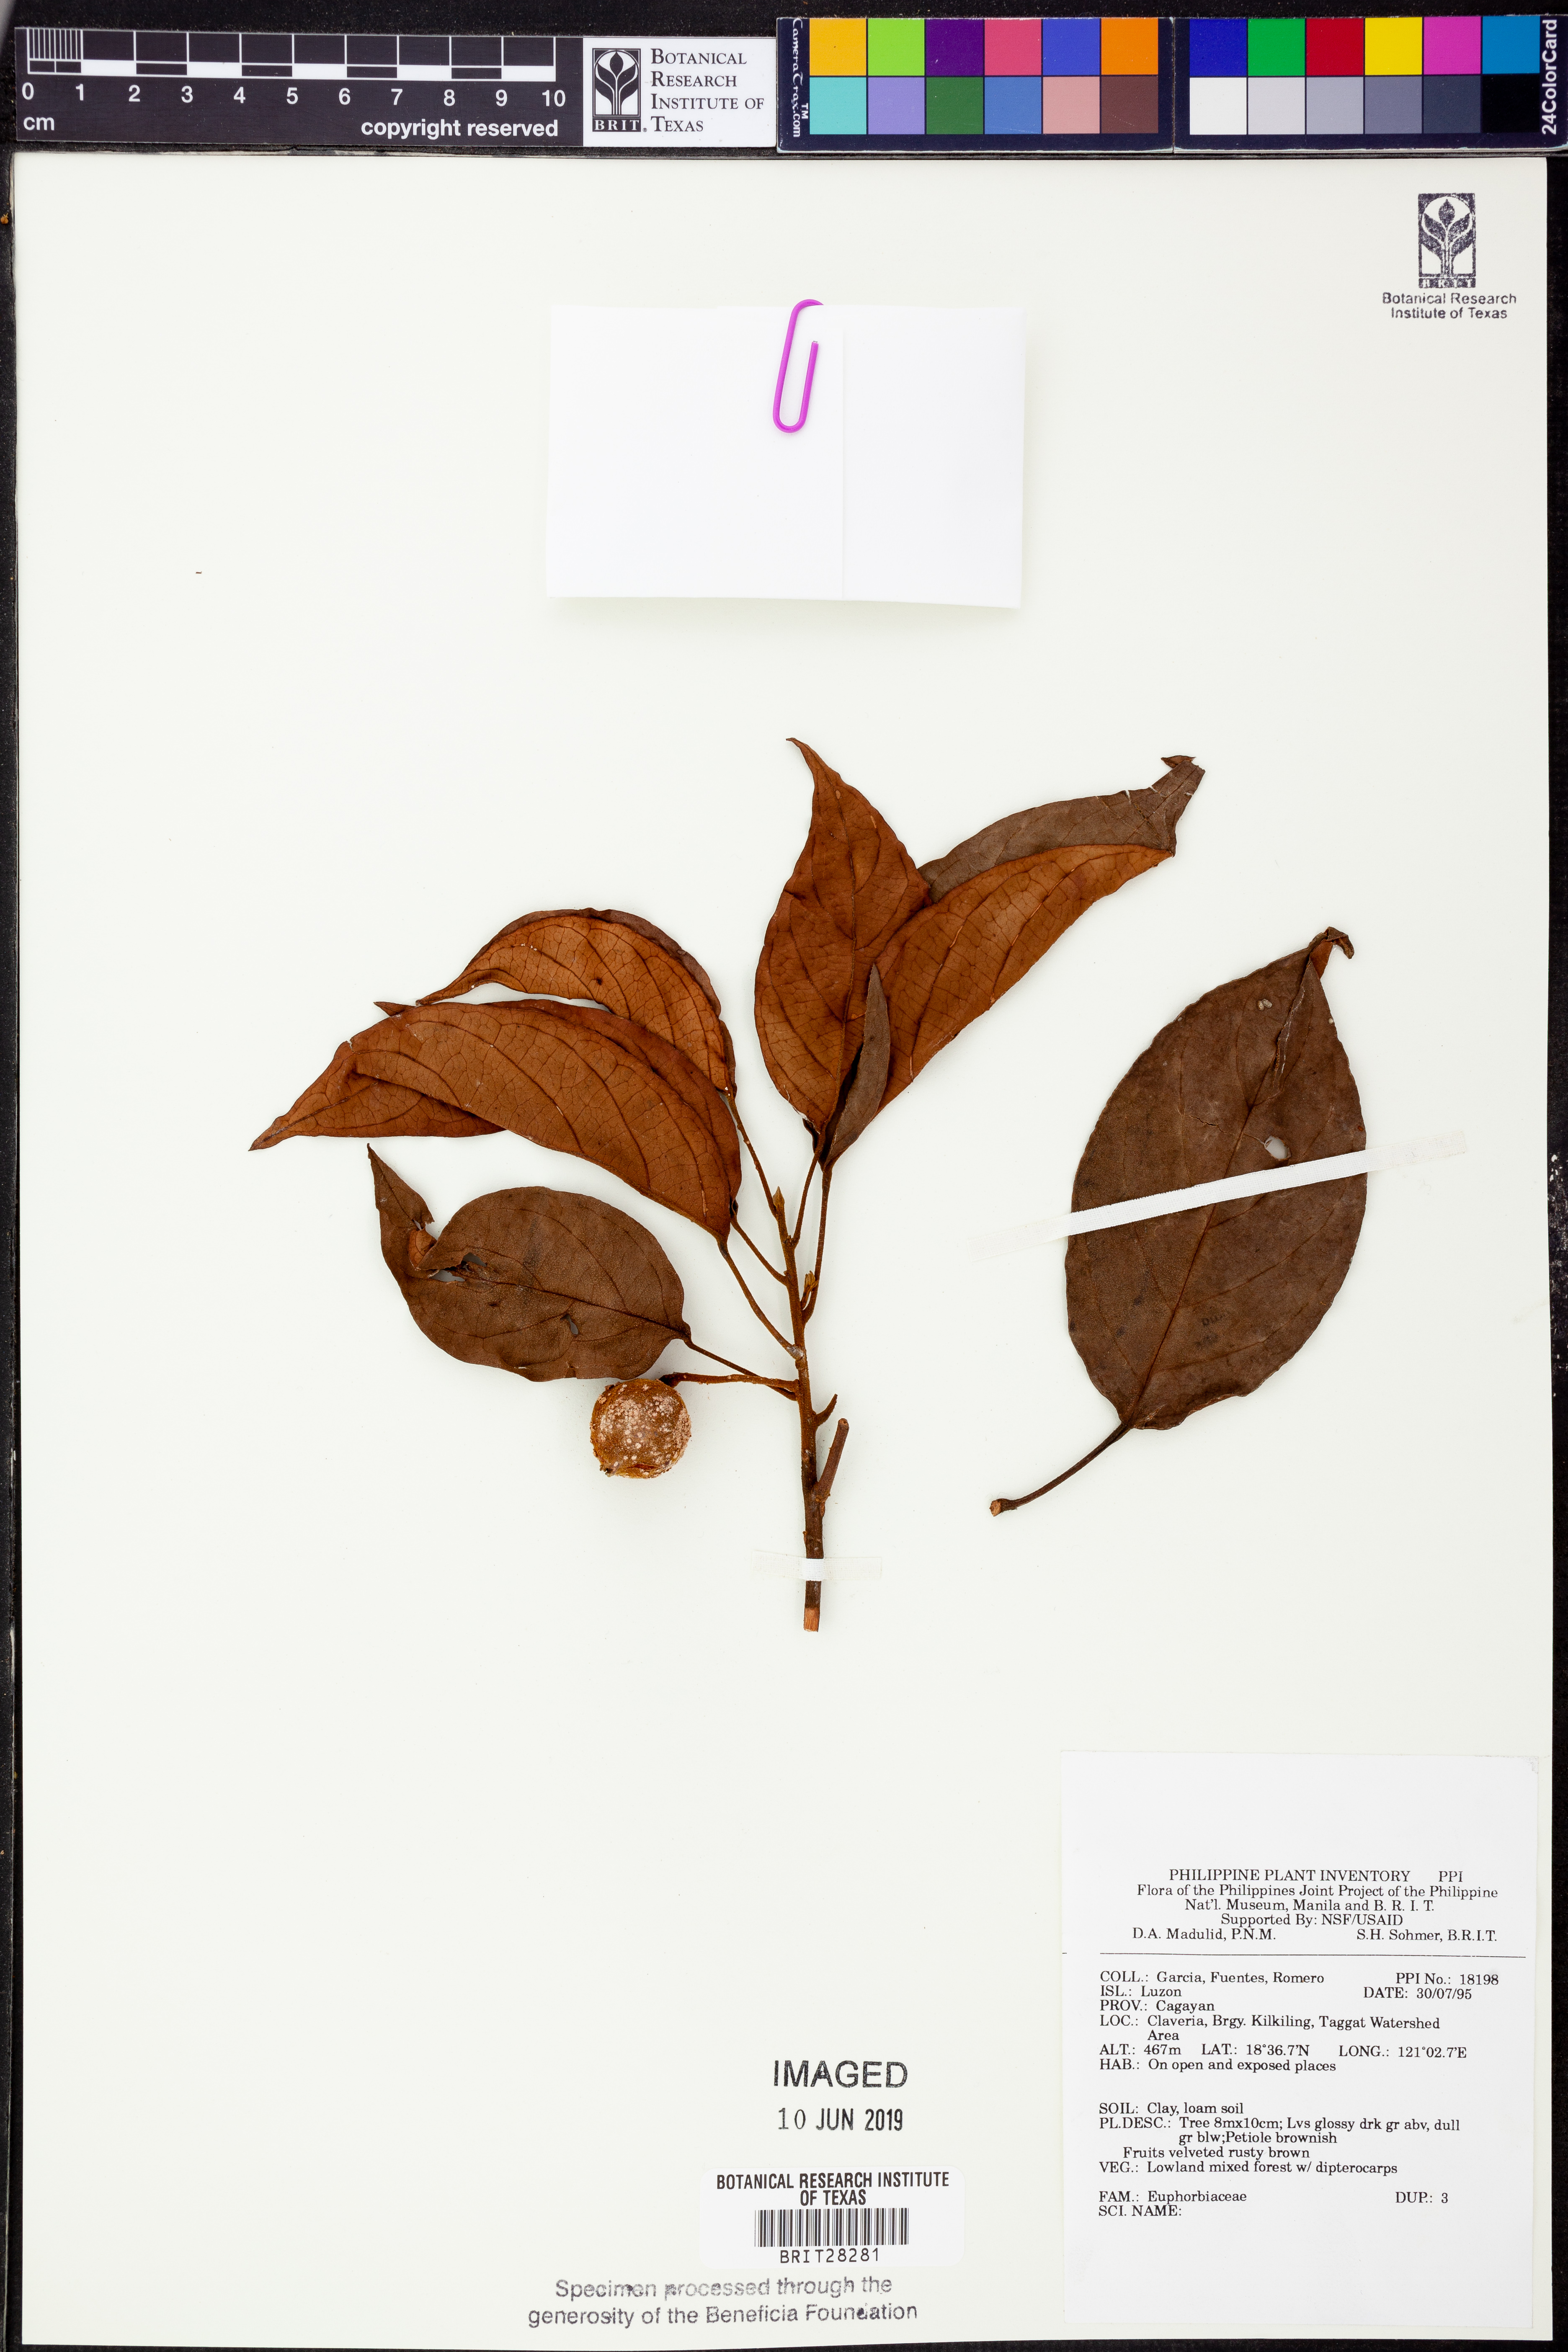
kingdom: Plantae
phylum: Tracheophyta
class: Magnoliopsida
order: Malpighiales
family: Euphorbiaceae
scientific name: Euphorbiaceae
